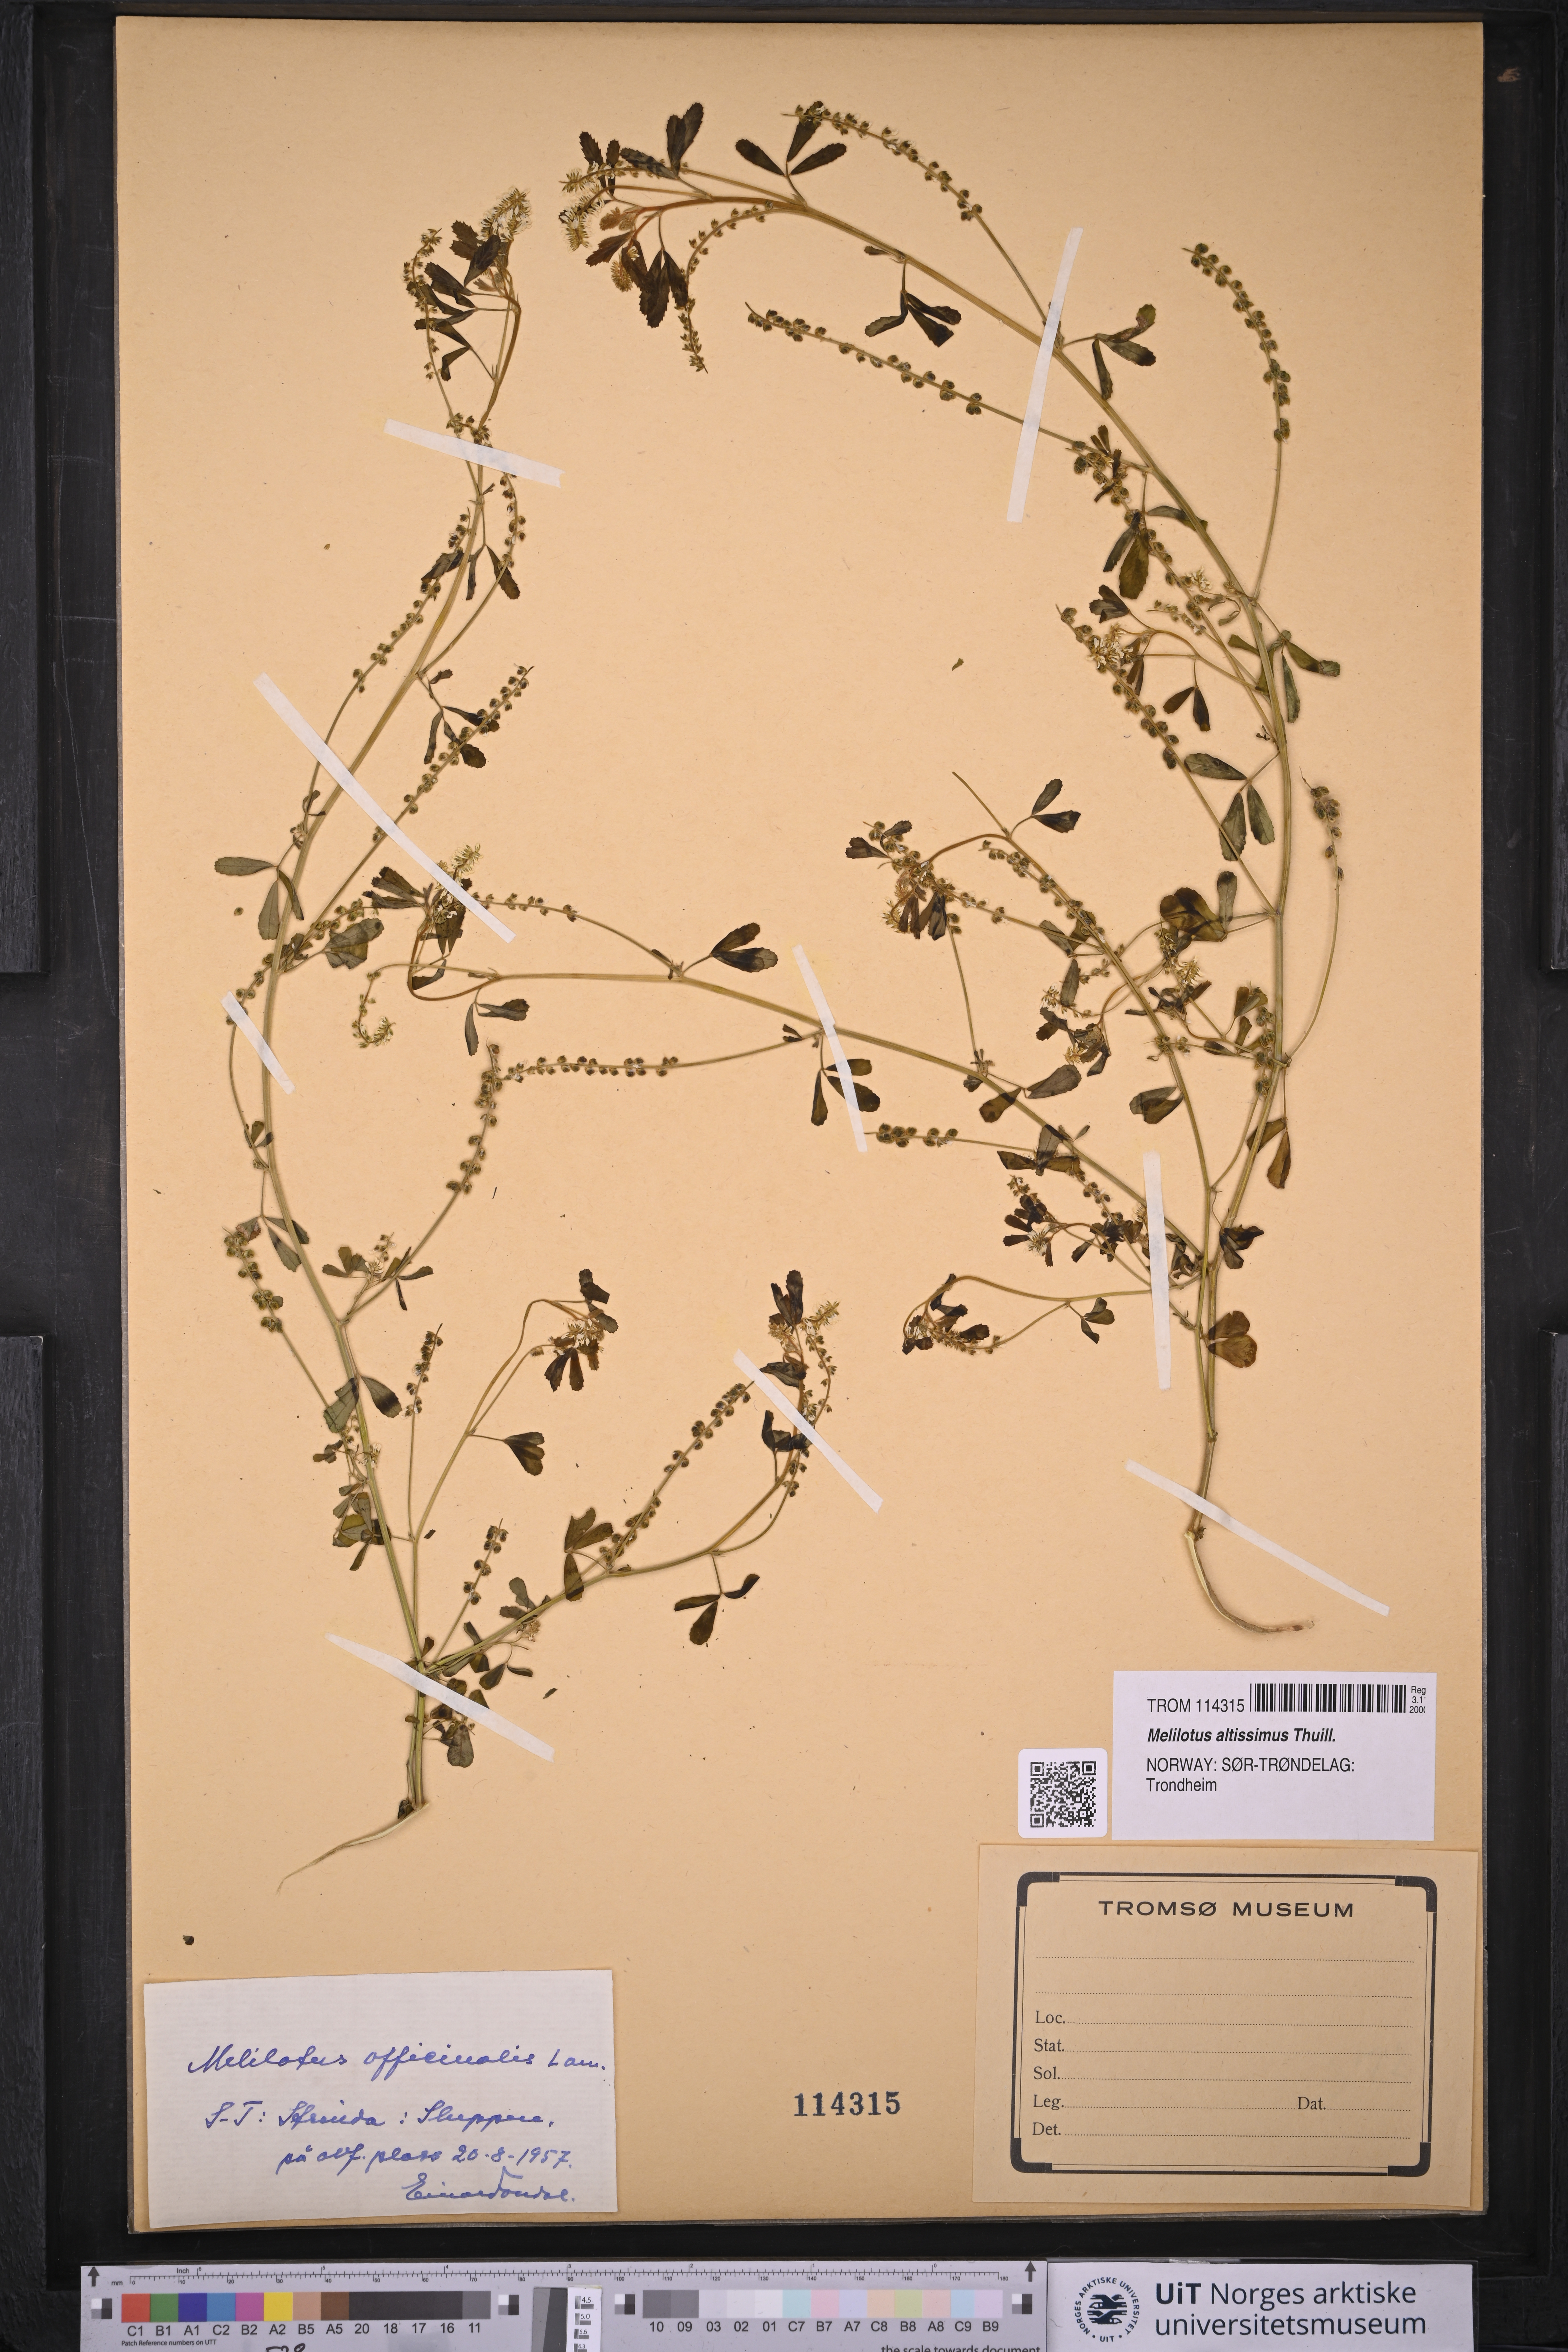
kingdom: Plantae
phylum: Tracheophyta
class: Magnoliopsida
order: Fabales
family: Fabaceae
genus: Melilotus
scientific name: Melilotus altissimus
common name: Tall melilot
